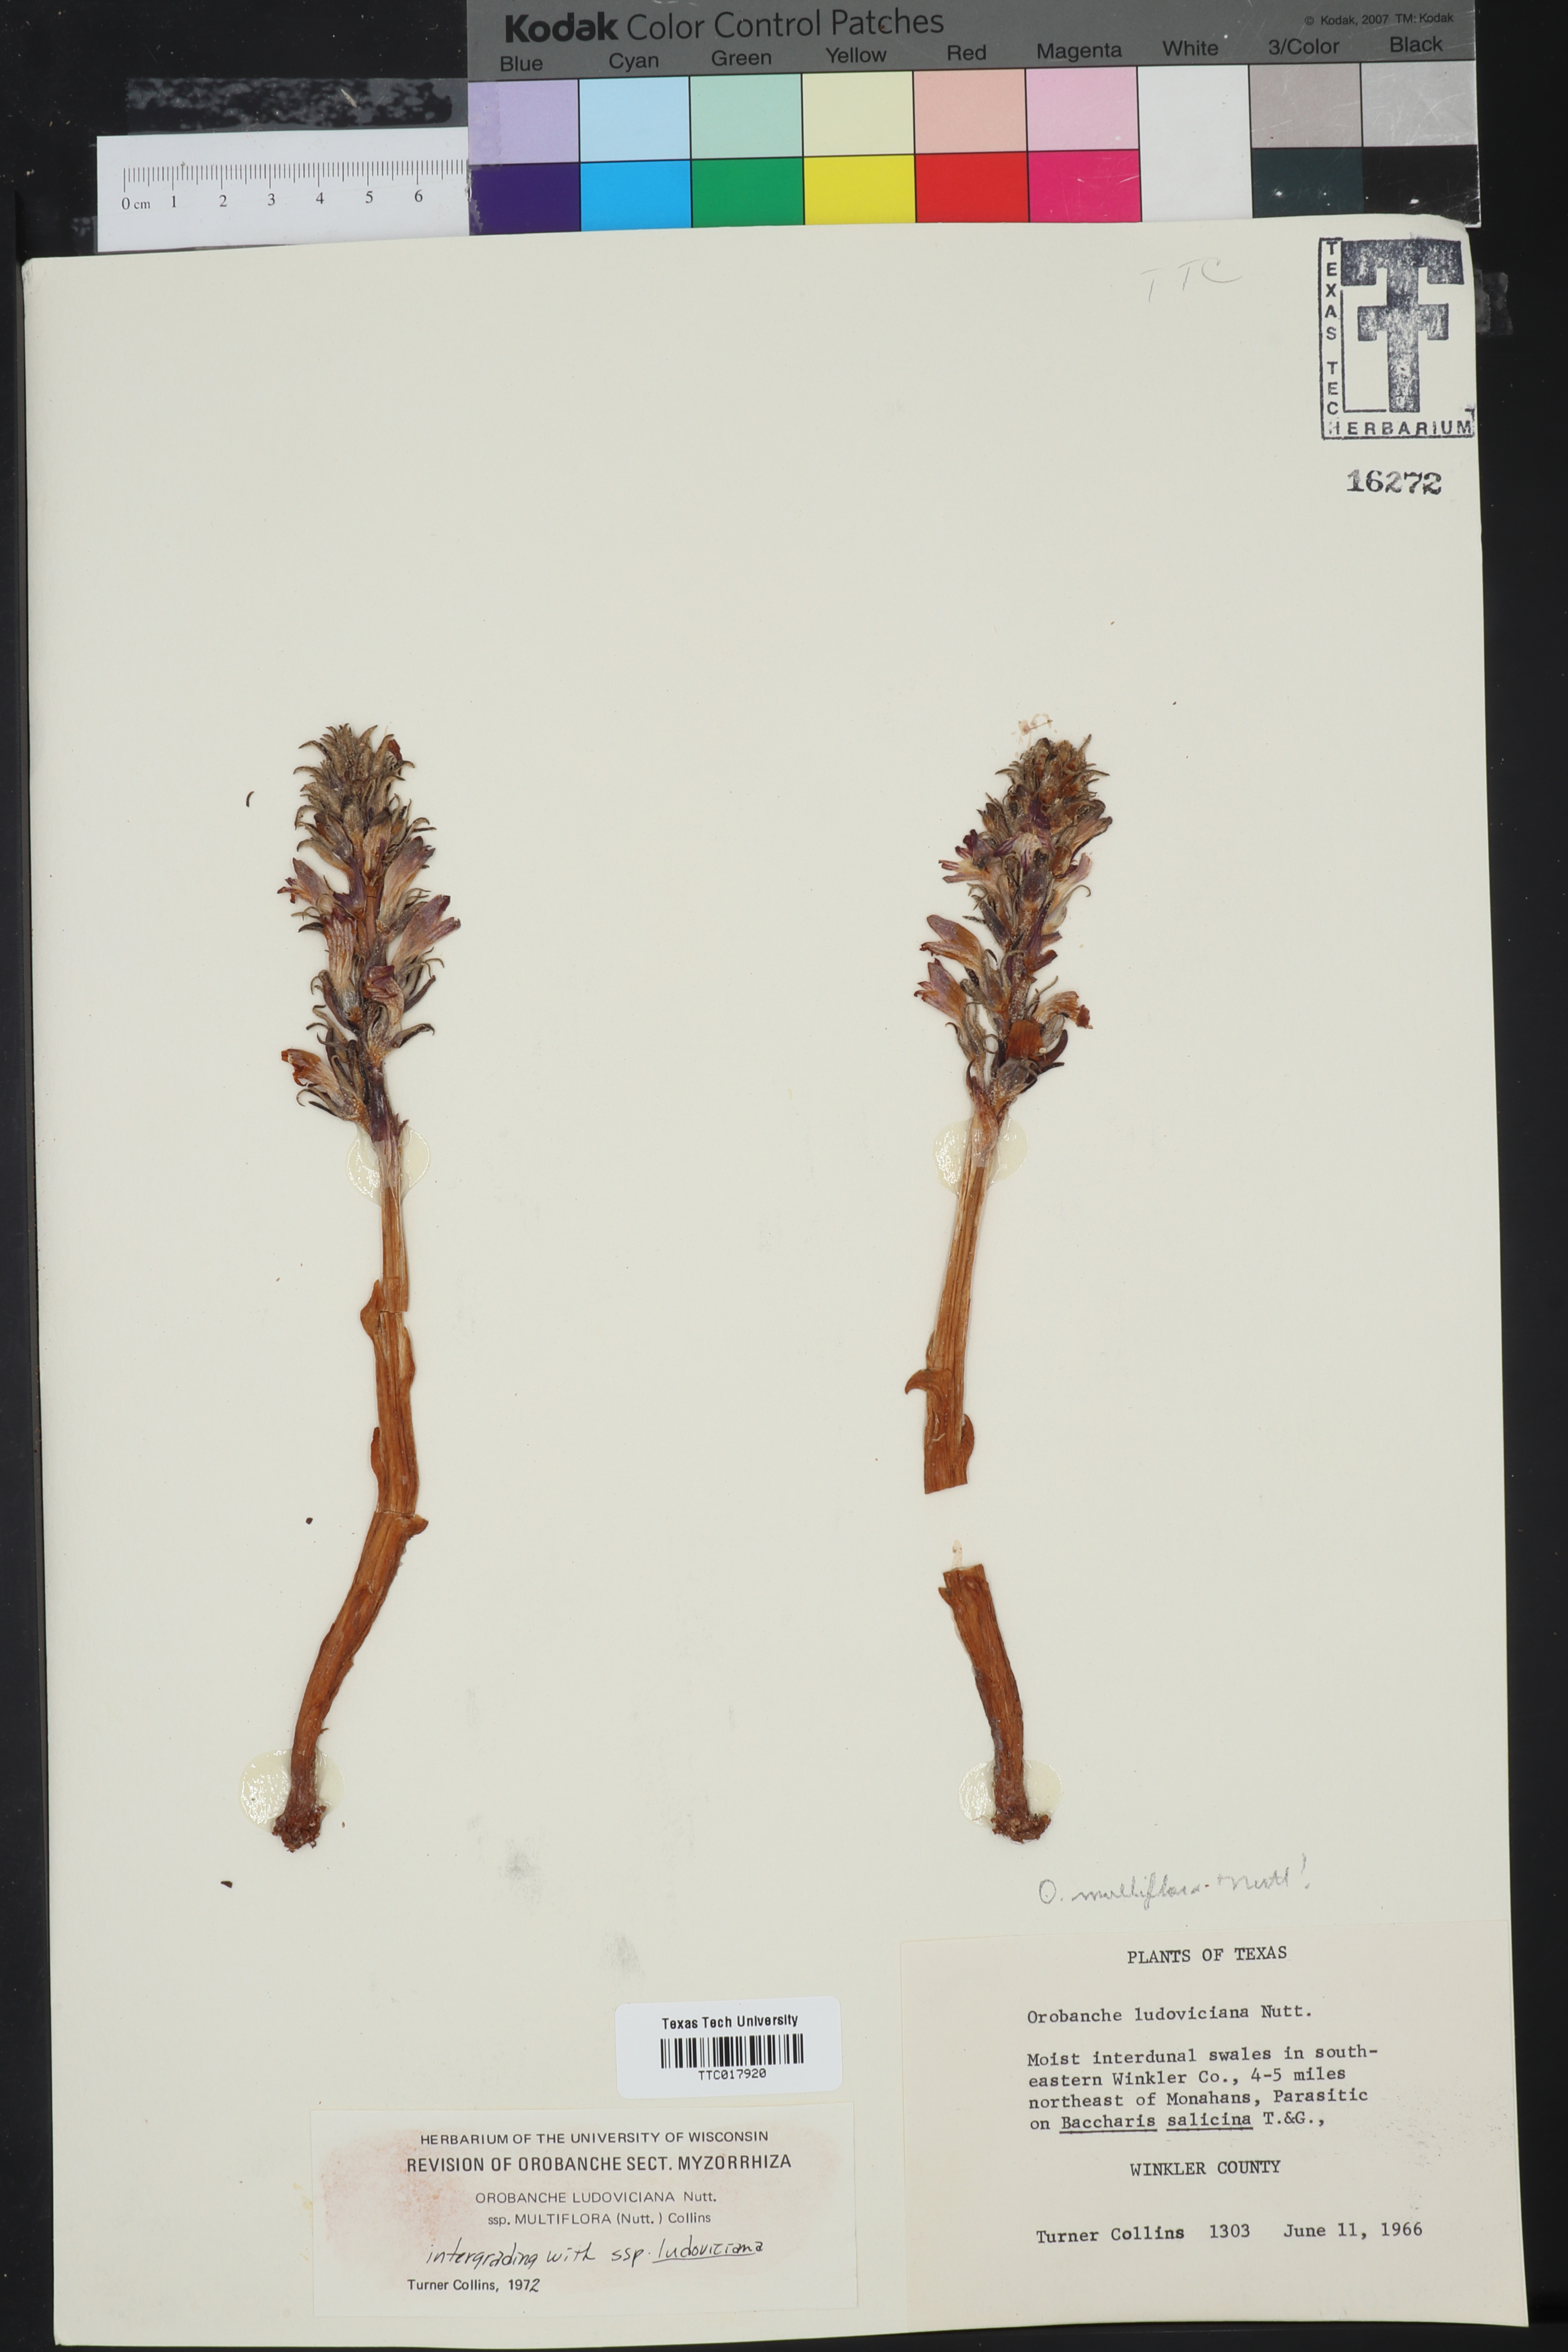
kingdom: Plantae
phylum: Tracheophyta
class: Magnoliopsida
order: Lamiales
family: Orobanchaceae
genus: Aphyllon
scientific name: Aphyllon multiflorum
